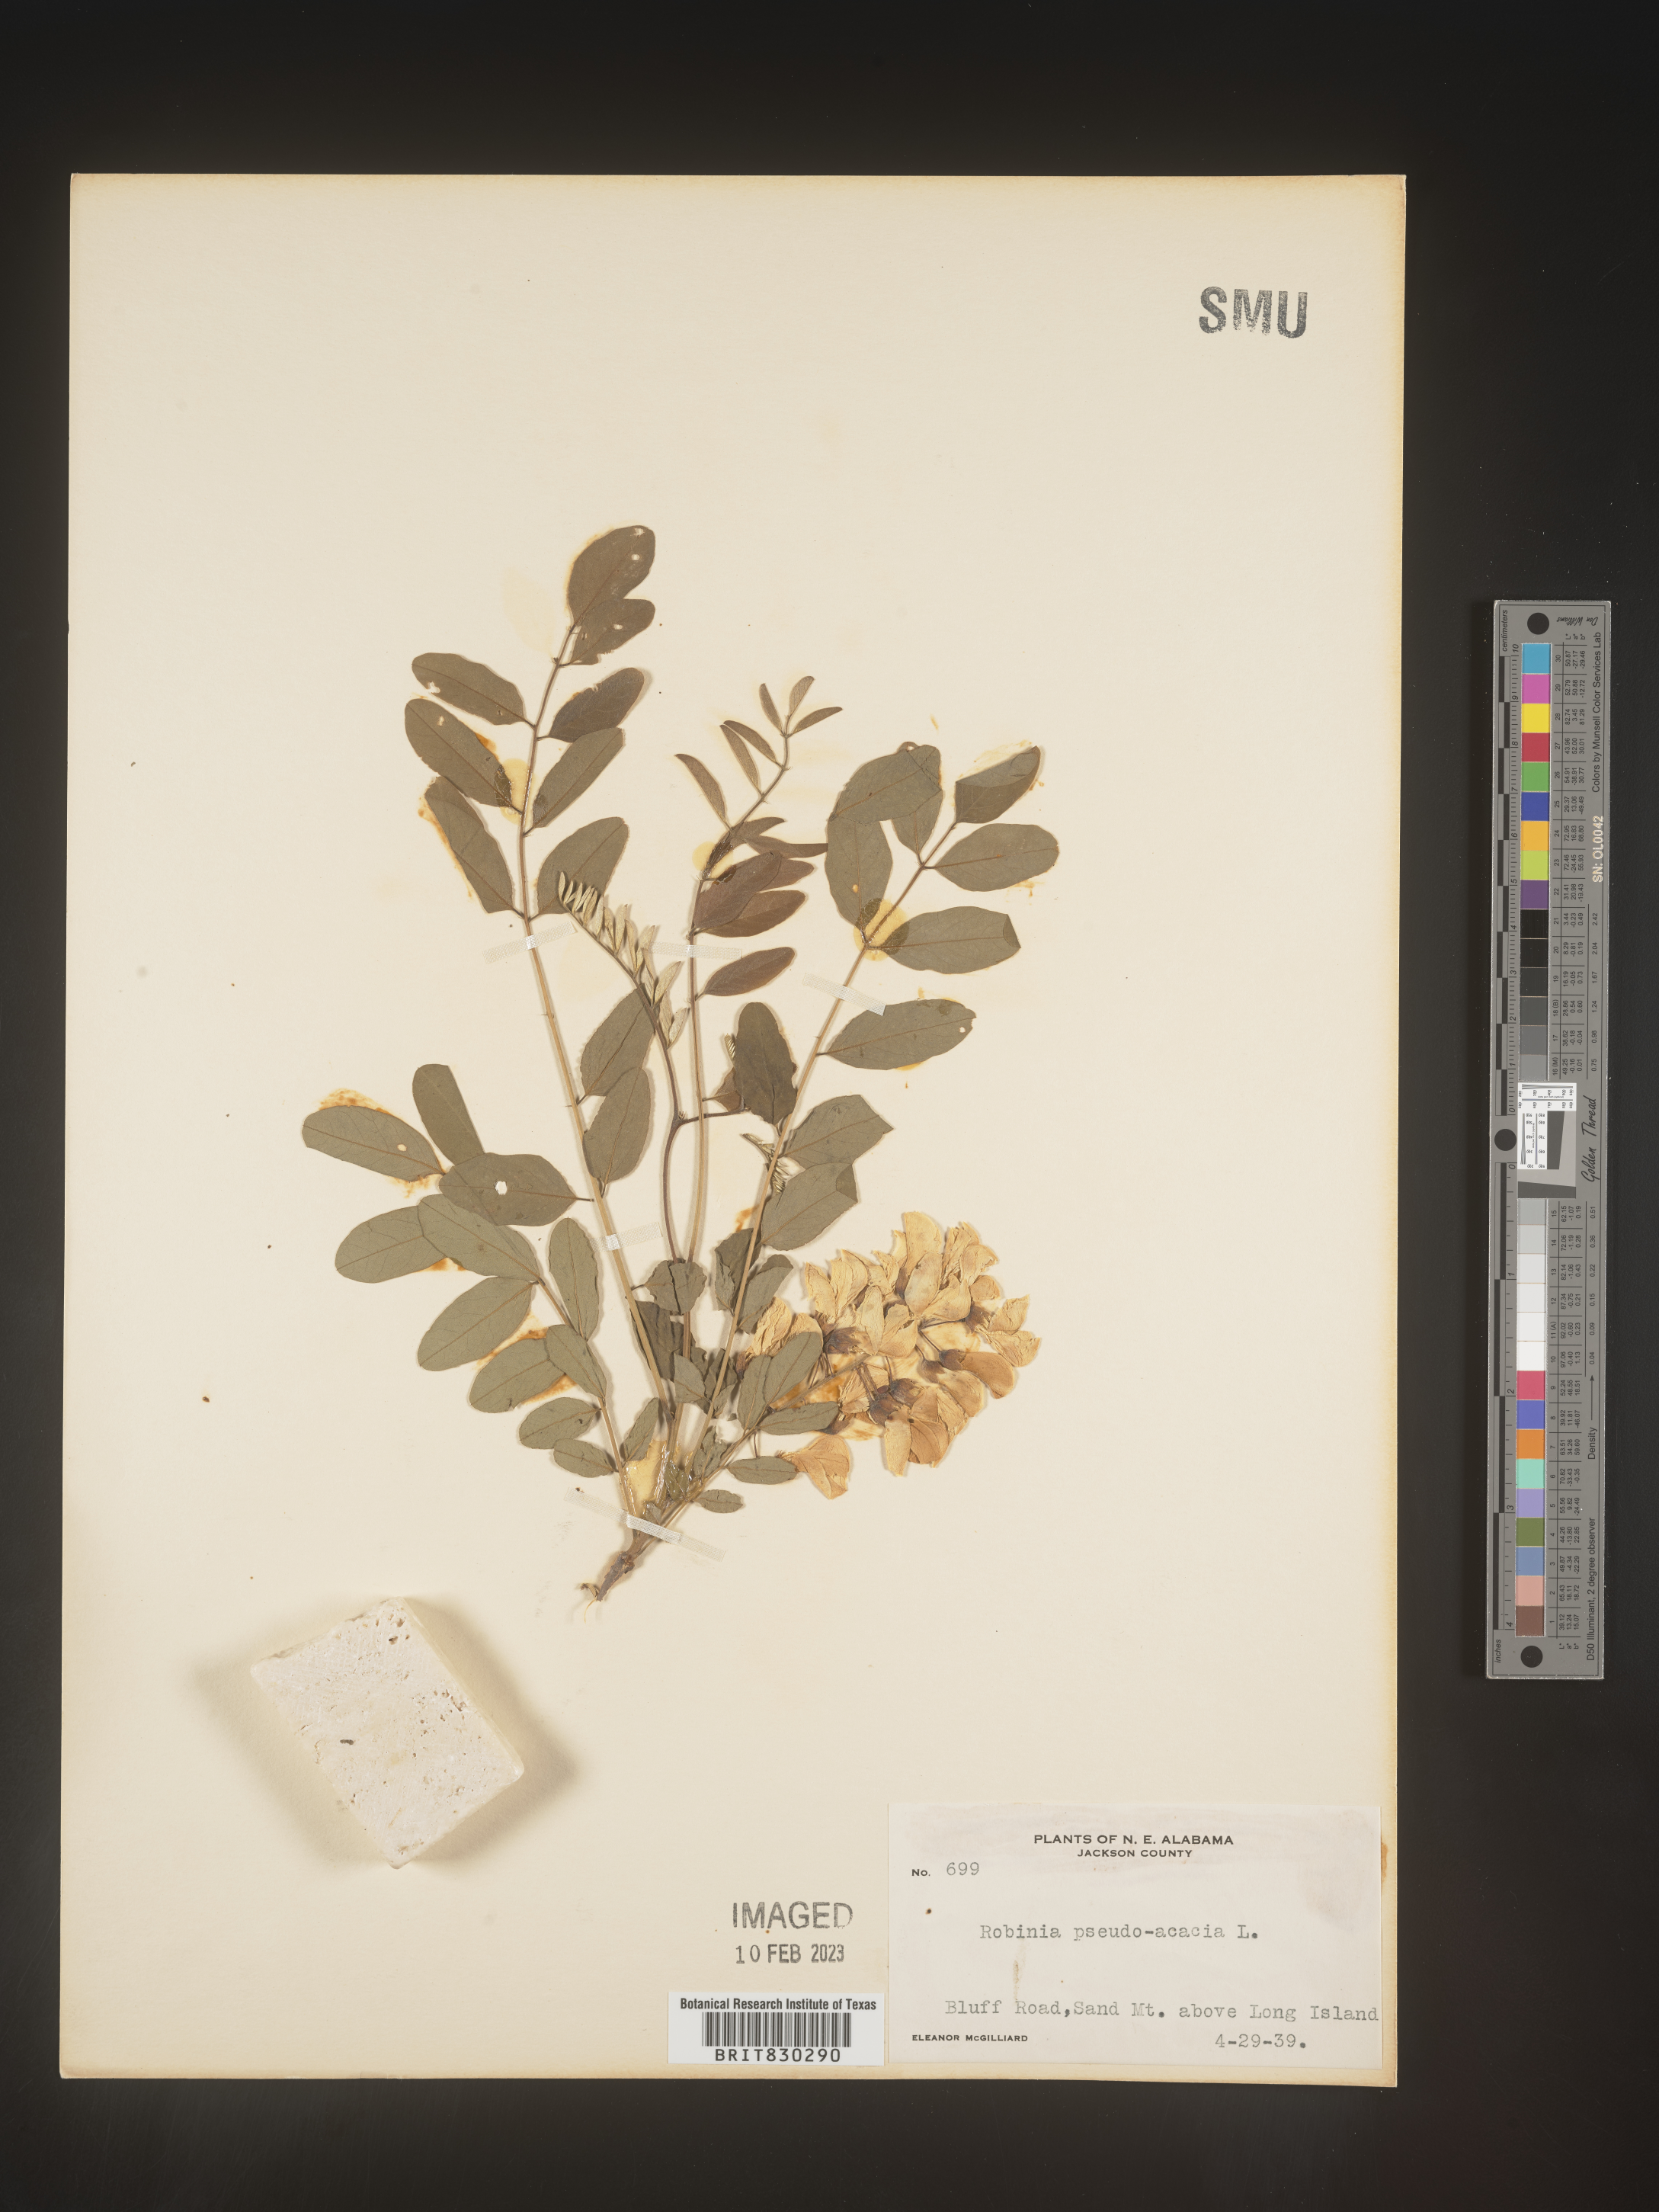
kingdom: Plantae
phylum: Tracheophyta
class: Magnoliopsida
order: Fabales
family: Fabaceae
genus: Robinia
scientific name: Robinia pseudoacacia
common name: Black locust
